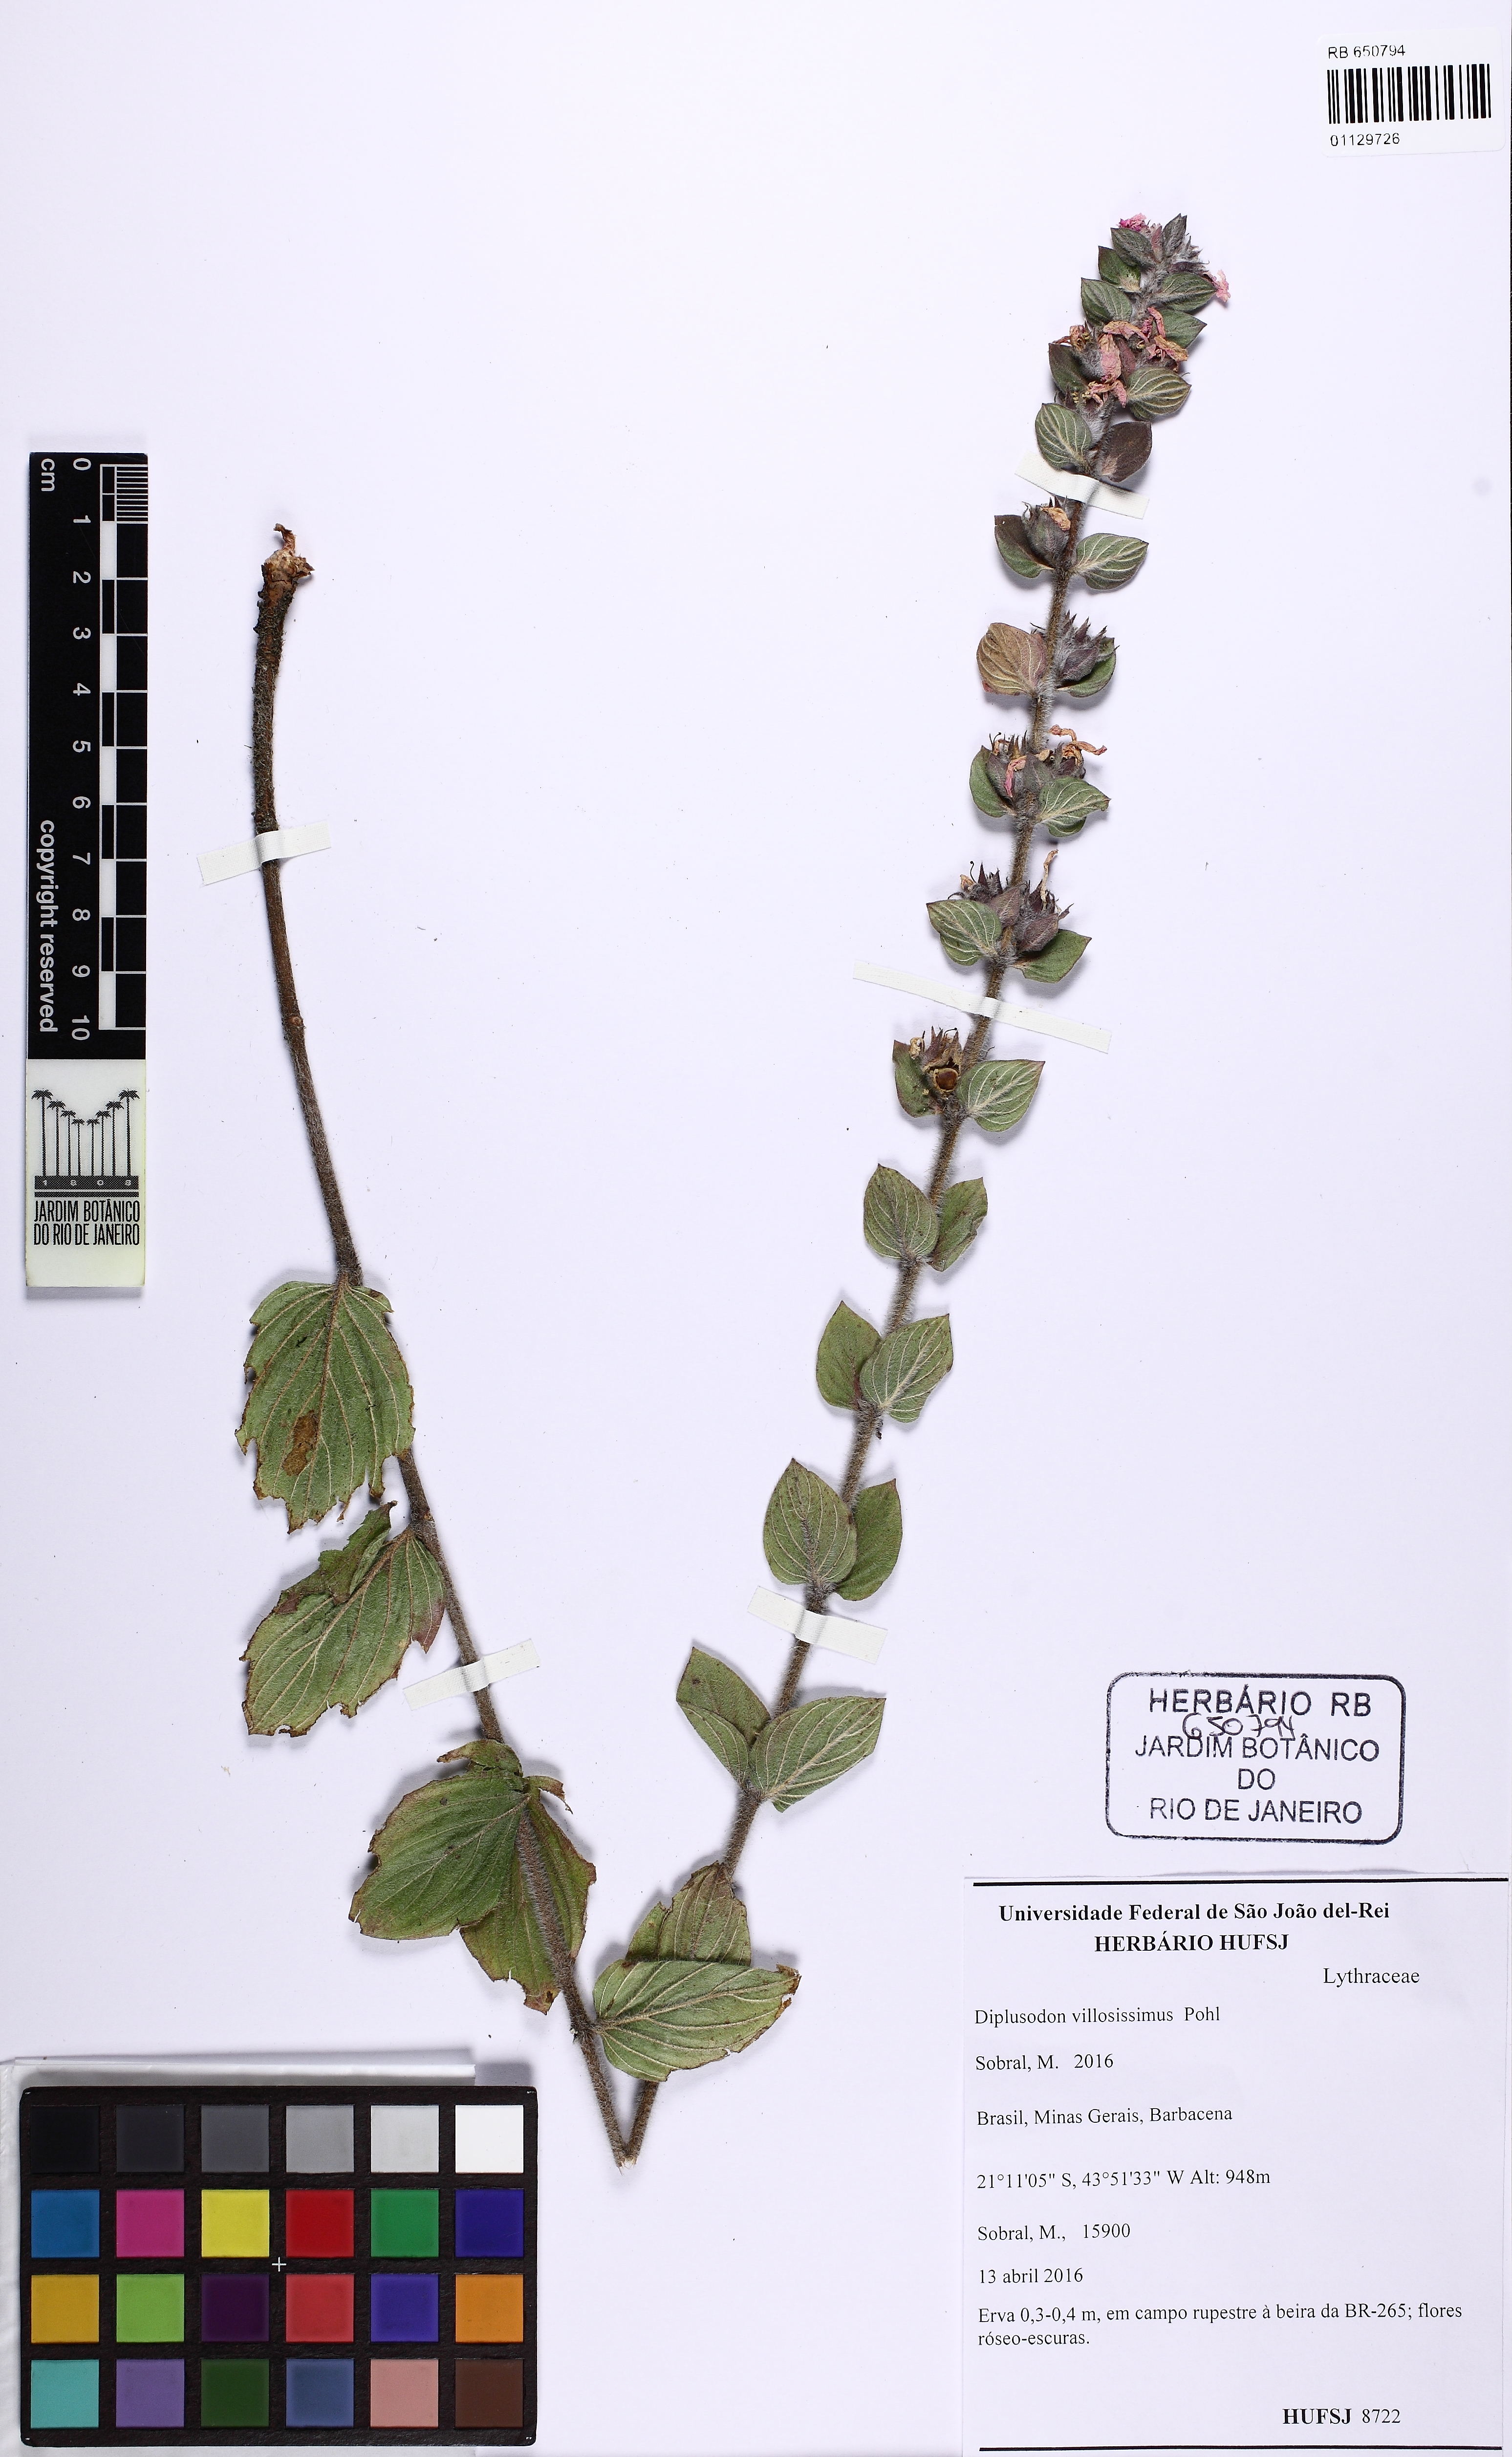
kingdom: Plantae
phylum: Tracheophyta
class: Magnoliopsida
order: Myrtales
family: Lythraceae
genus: Diplusodon
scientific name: Diplusodon villosissimus
